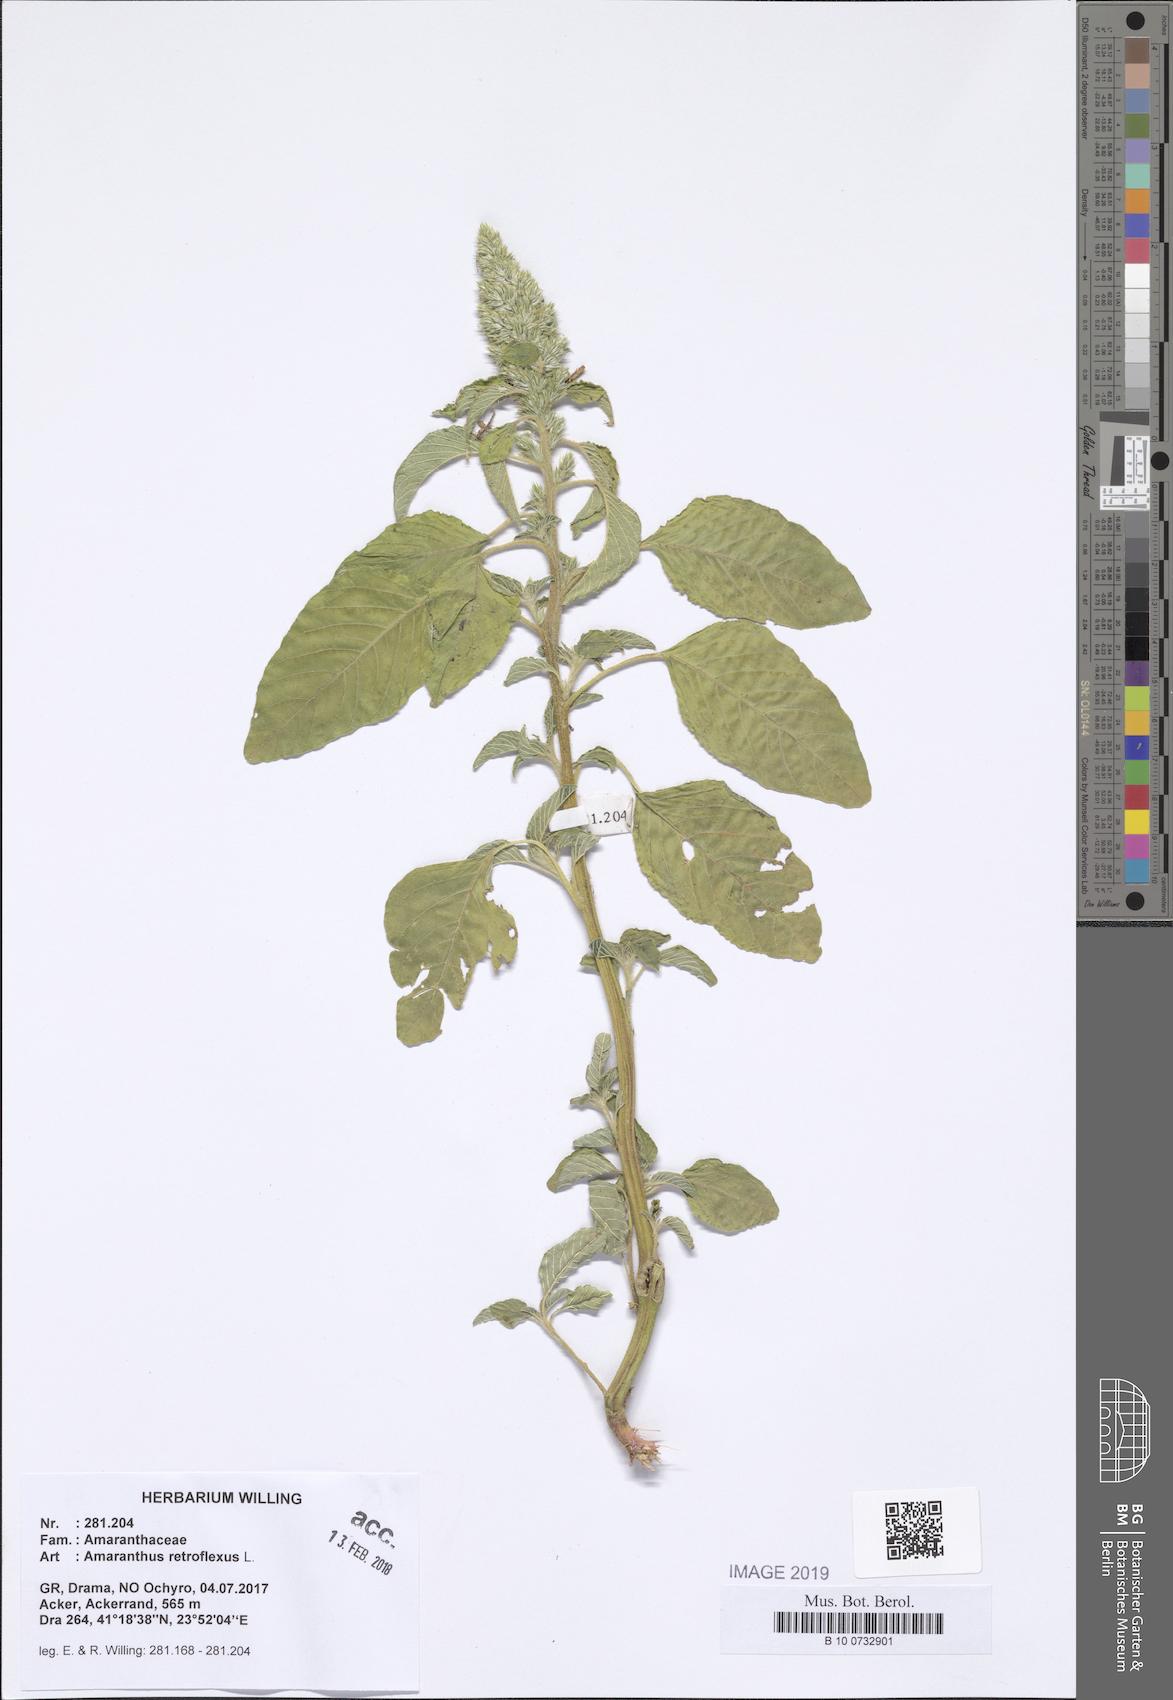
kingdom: Plantae
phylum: Tracheophyta
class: Magnoliopsida
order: Caryophyllales
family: Amaranthaceae
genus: Amaranthus
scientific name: Amaranthus retroflexus
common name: Redroot amaranth
